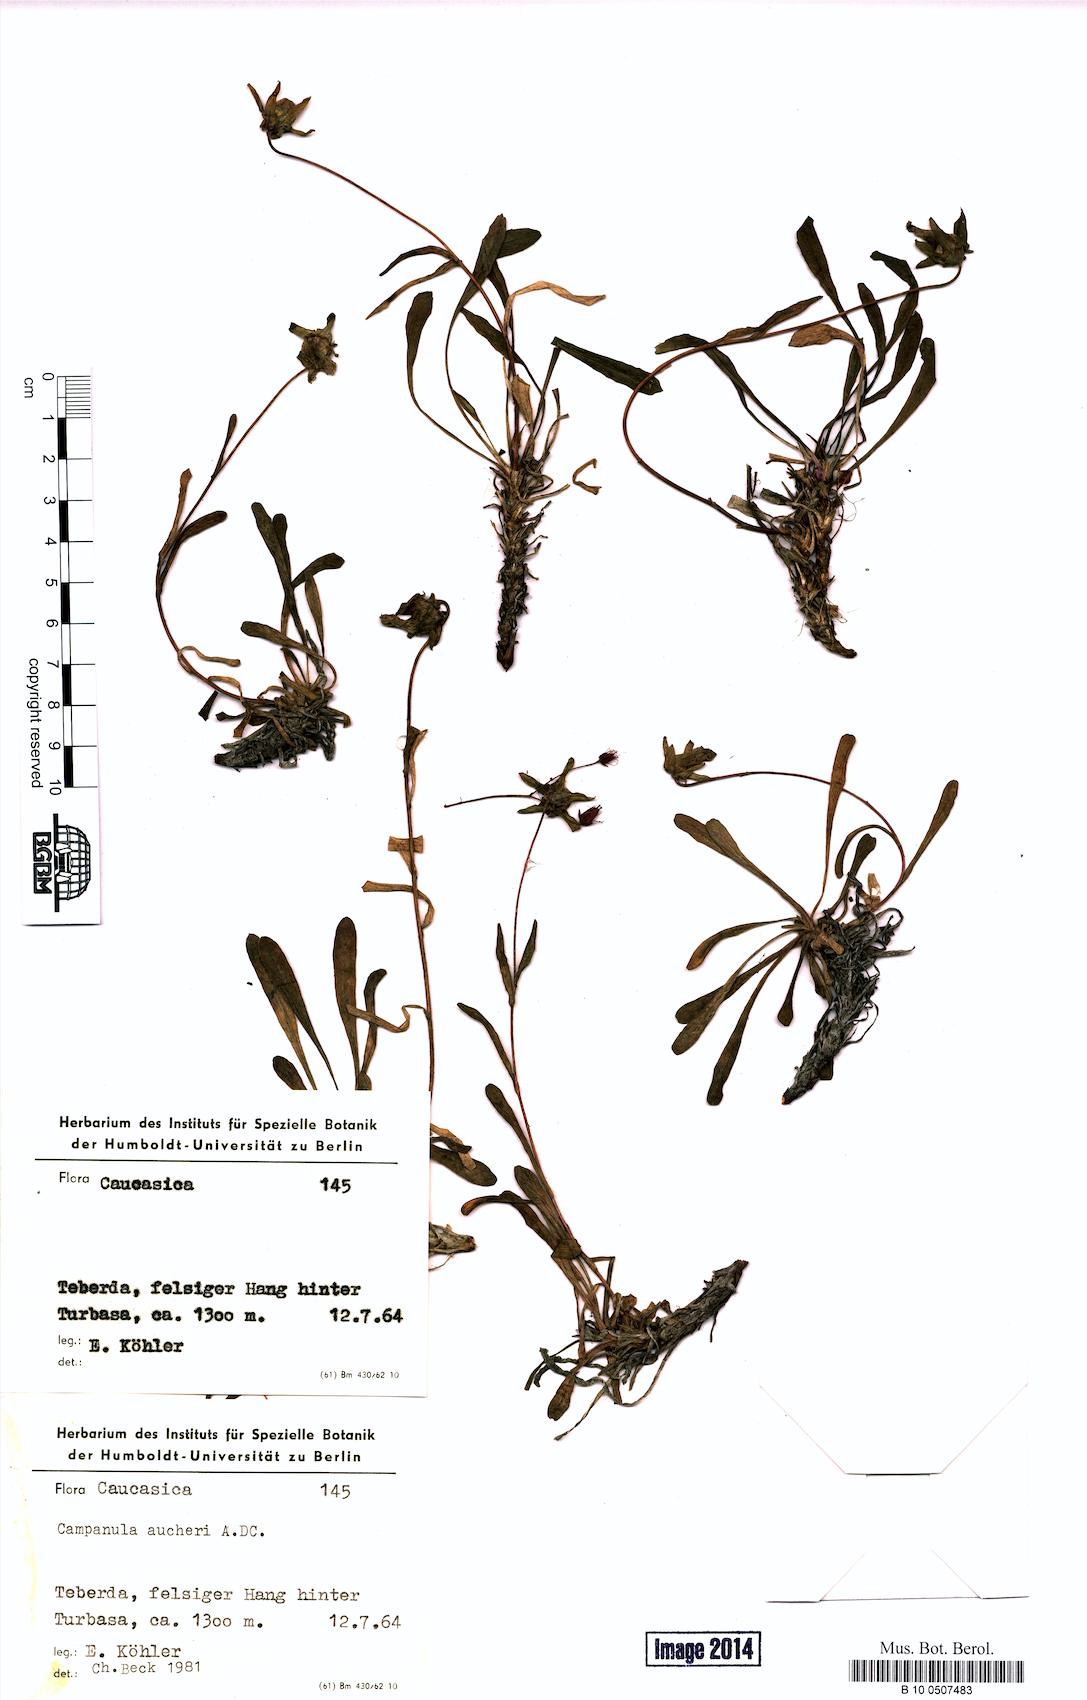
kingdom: Plantae
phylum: Tracheophyta
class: Magnoliopsida
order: Asterales
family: Campanulaceae
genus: Campanula
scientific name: Campanula saxifraga
